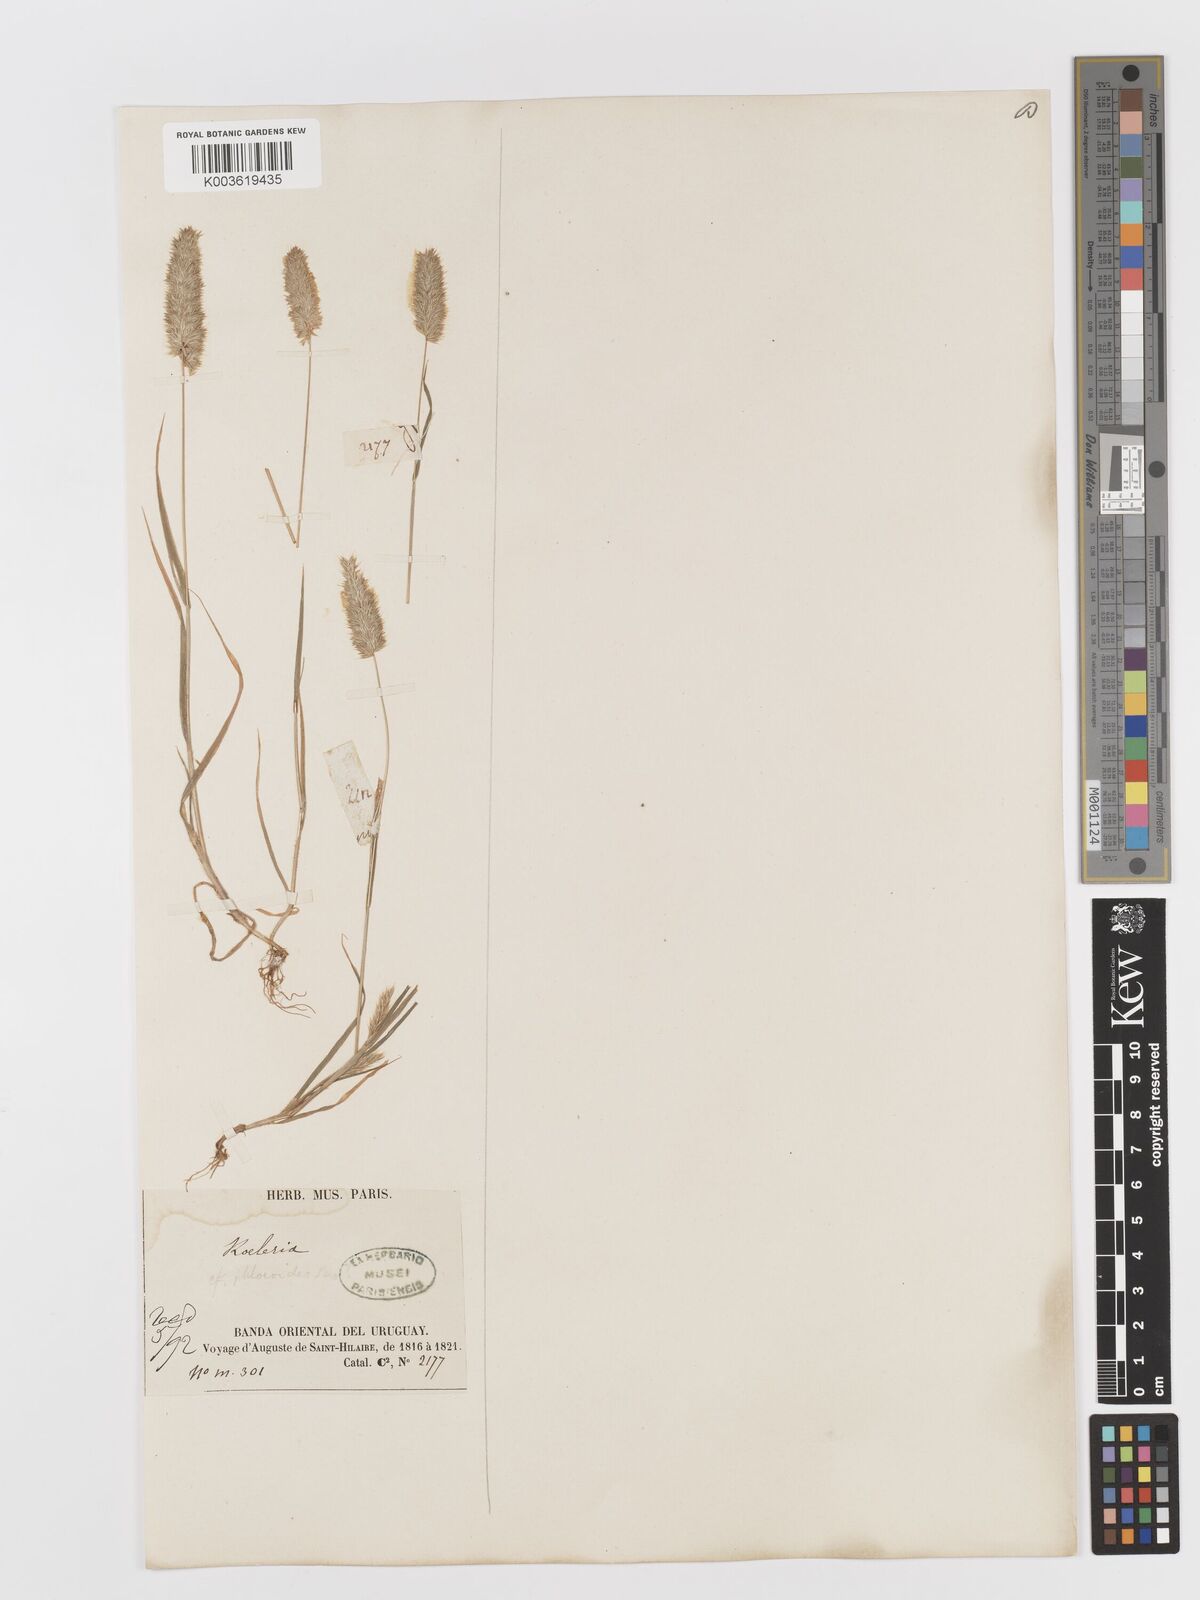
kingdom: Plantae
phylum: Tracheophyta
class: Liliopsida
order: Poales
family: Poaceae
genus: Rostraria
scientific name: Rostraria cristata
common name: Mediterranean hair-grass
